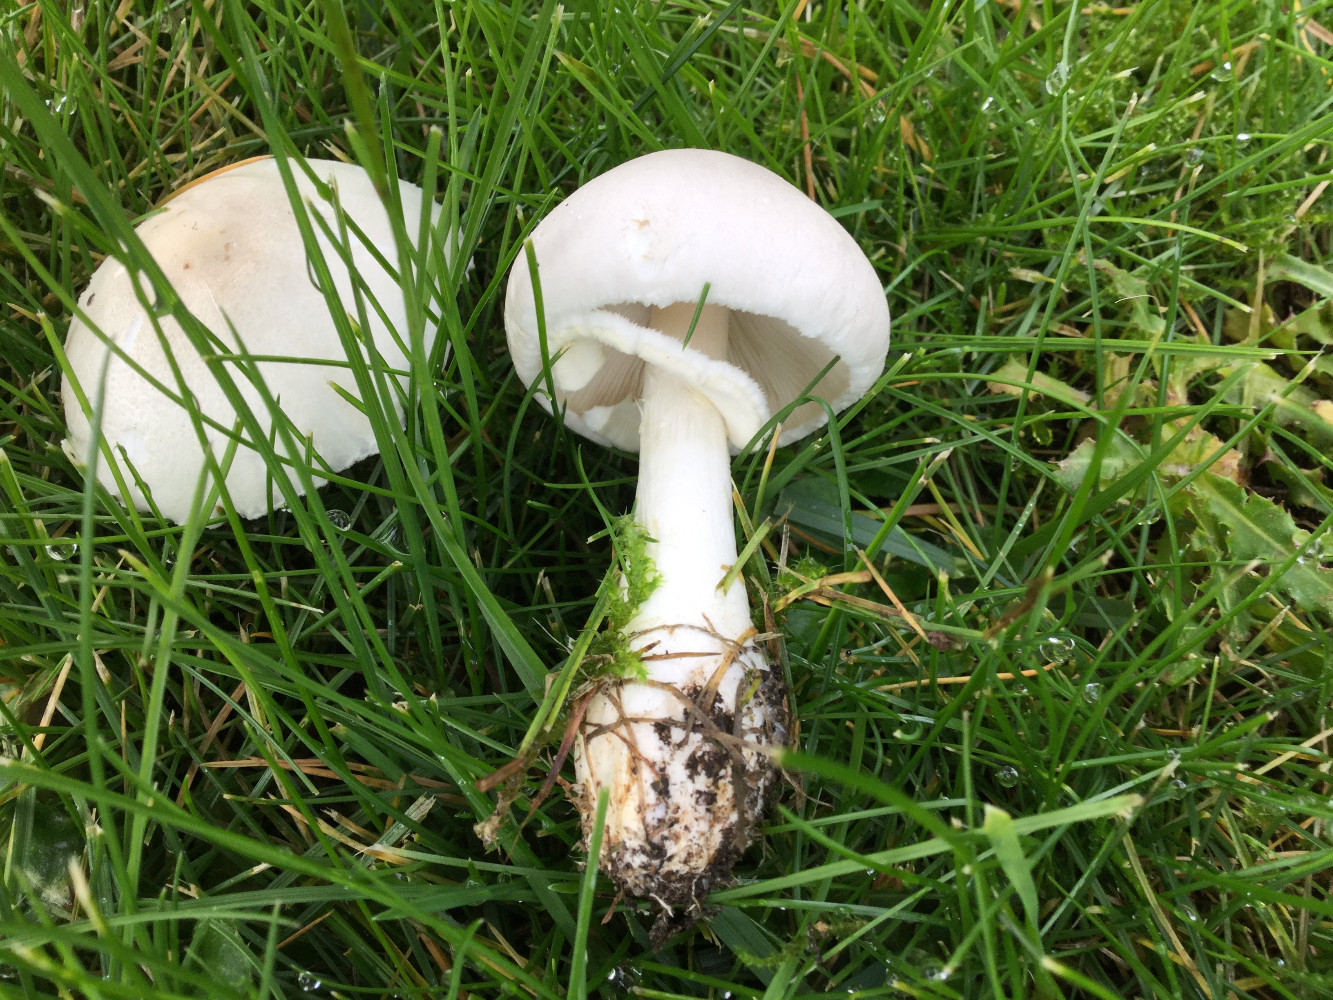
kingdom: Fungi
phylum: Basidiomycota
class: Agaricomycetes
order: Agaricales
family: Agaricaceae
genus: Leucoagaricus
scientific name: Leucoagaricus leucothites
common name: rosabladet silkehat
